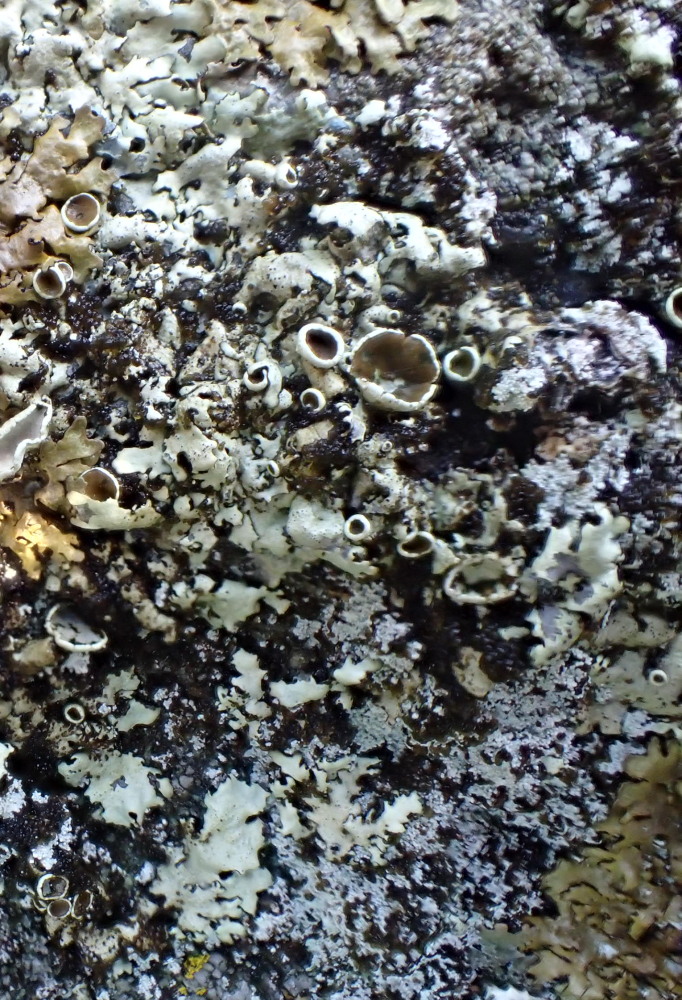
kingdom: Fungi
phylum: Ascomycota
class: Lecanoromycetes
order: Lecanorales
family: Parmeliaceae
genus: Xanthoparmelia
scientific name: Xanthoparmelia conspersa
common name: messing-skållav
